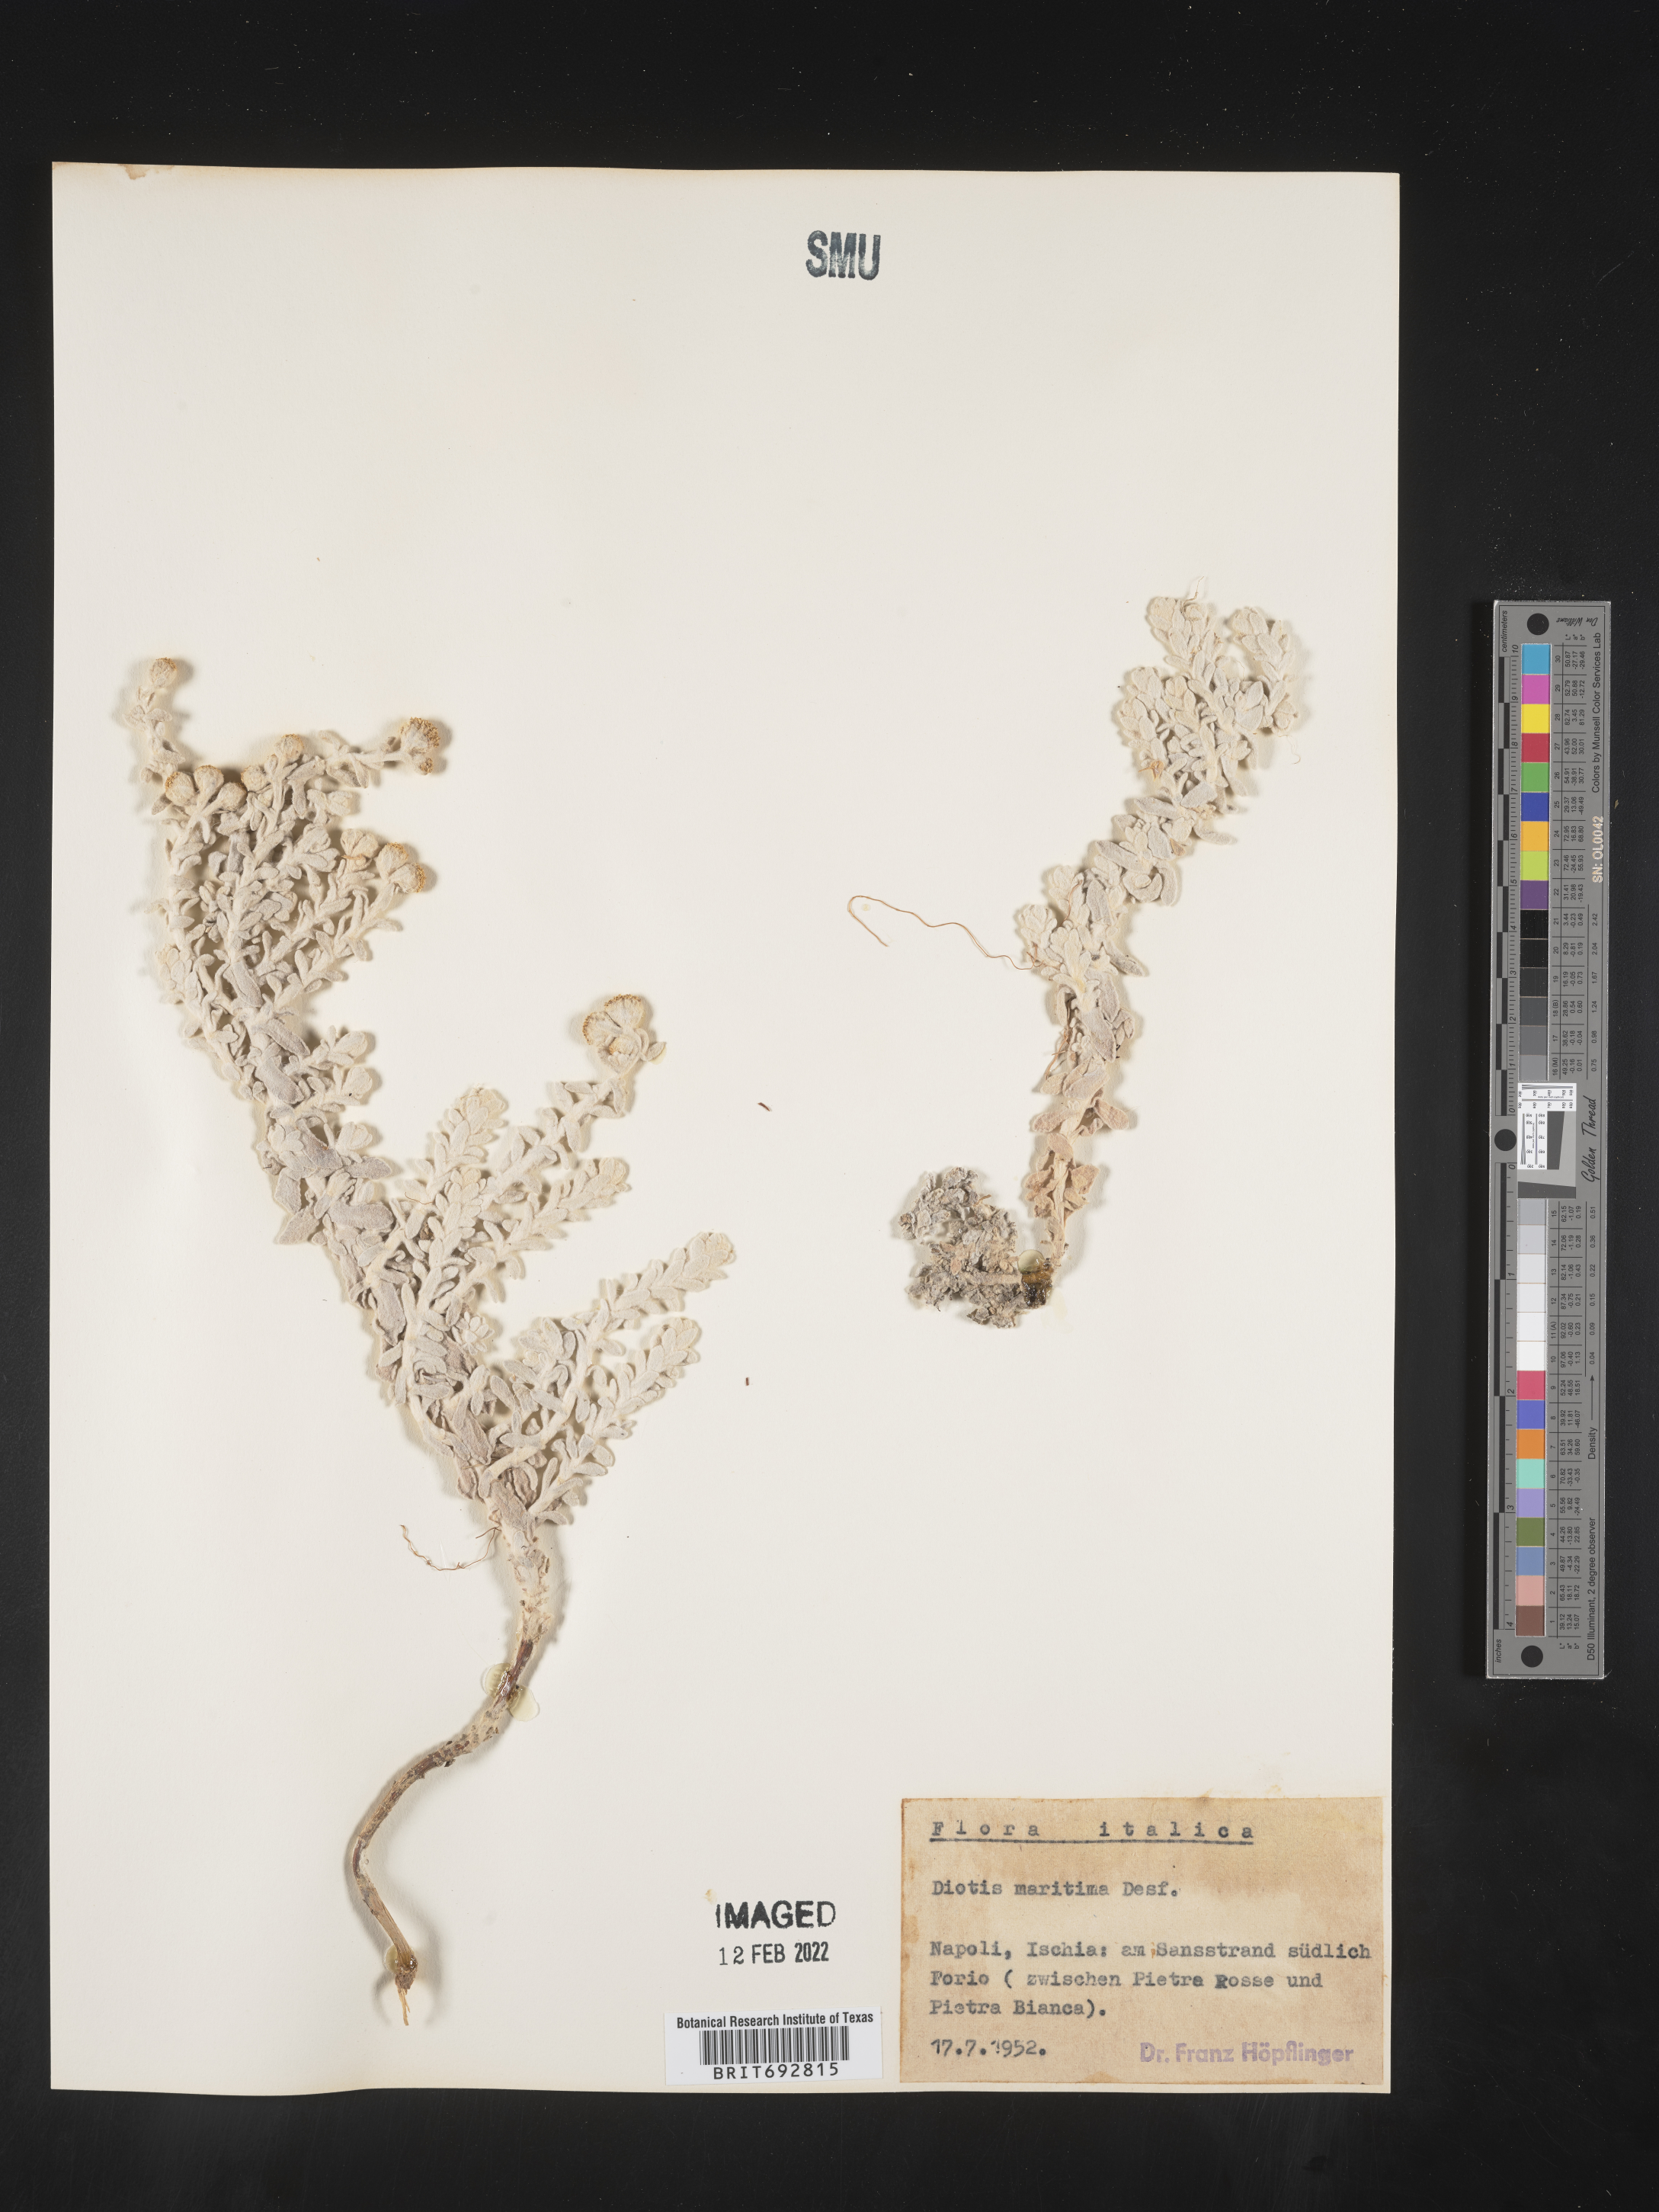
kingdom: Plantae
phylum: Tracheophyta
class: Magnoliopsida
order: Asterales
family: Asteraceae
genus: Achillea
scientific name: Achillea
